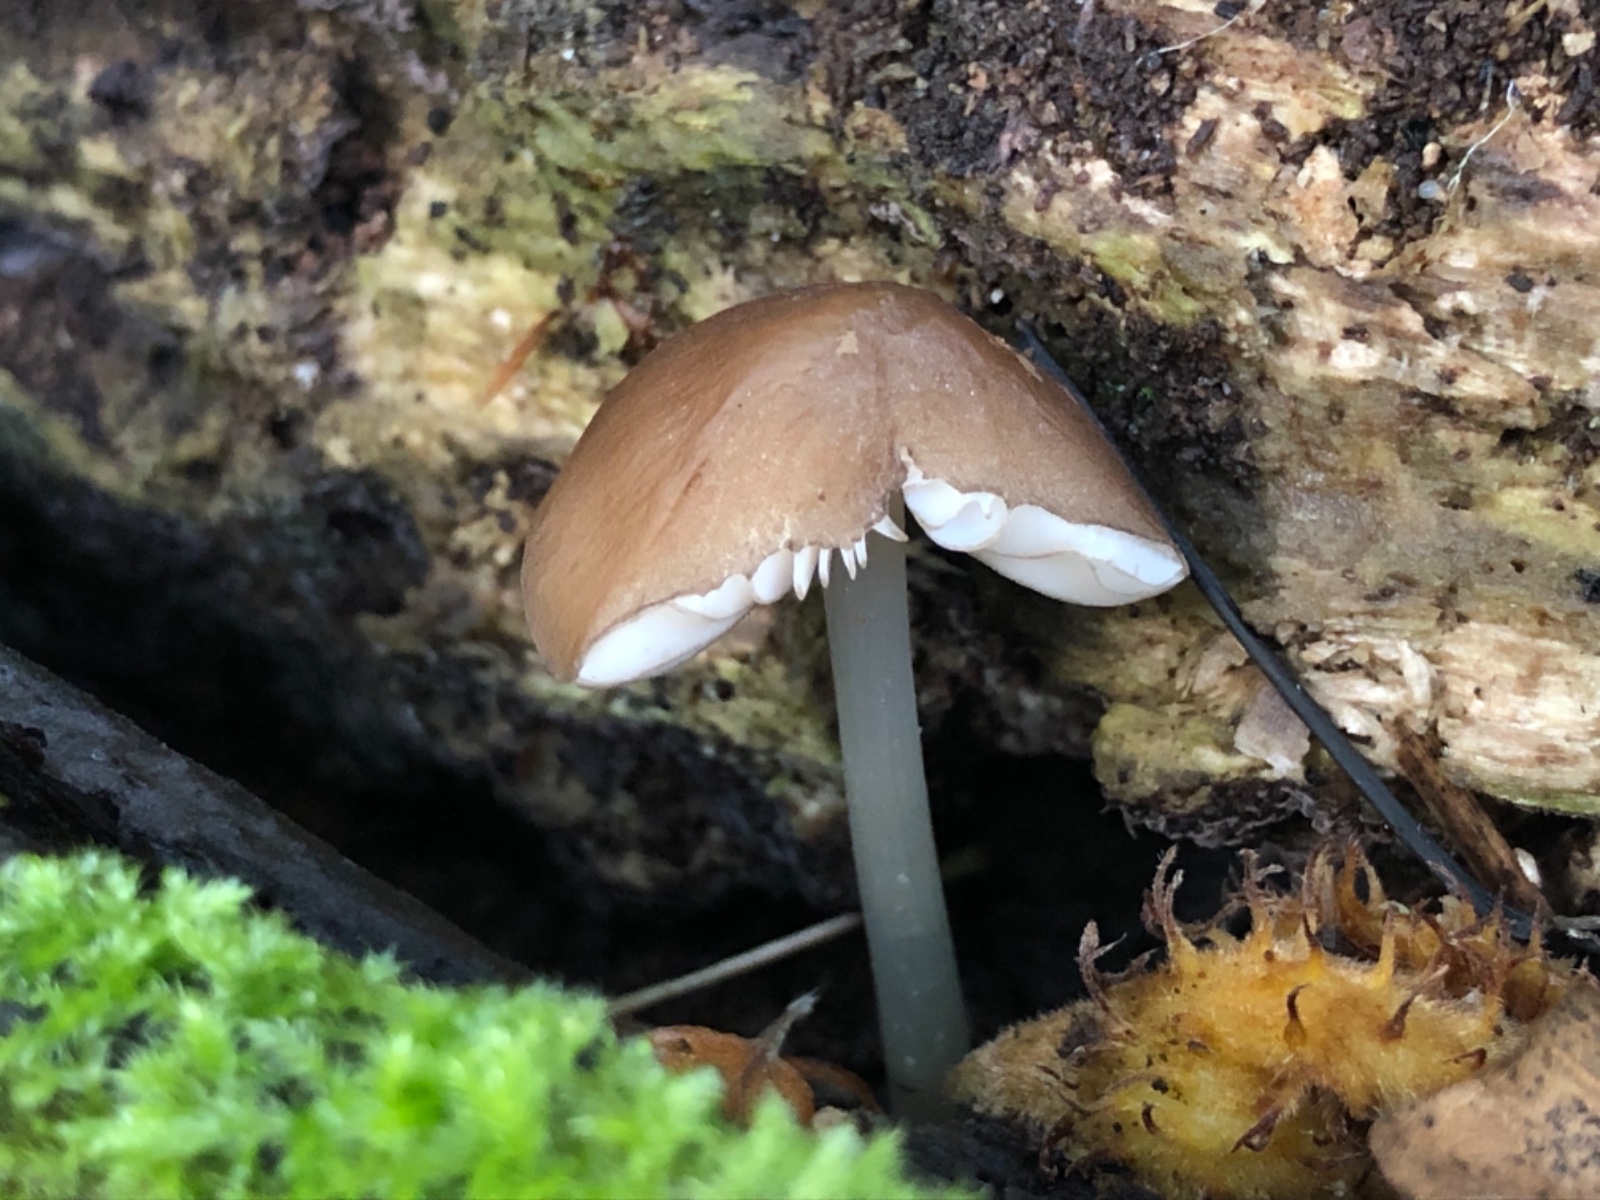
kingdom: Fungi
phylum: Basidiomycota
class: Agaricomycetes
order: Agaricales
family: Pluteaceae
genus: Pluteus
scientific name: Pluteus phlebophorus
